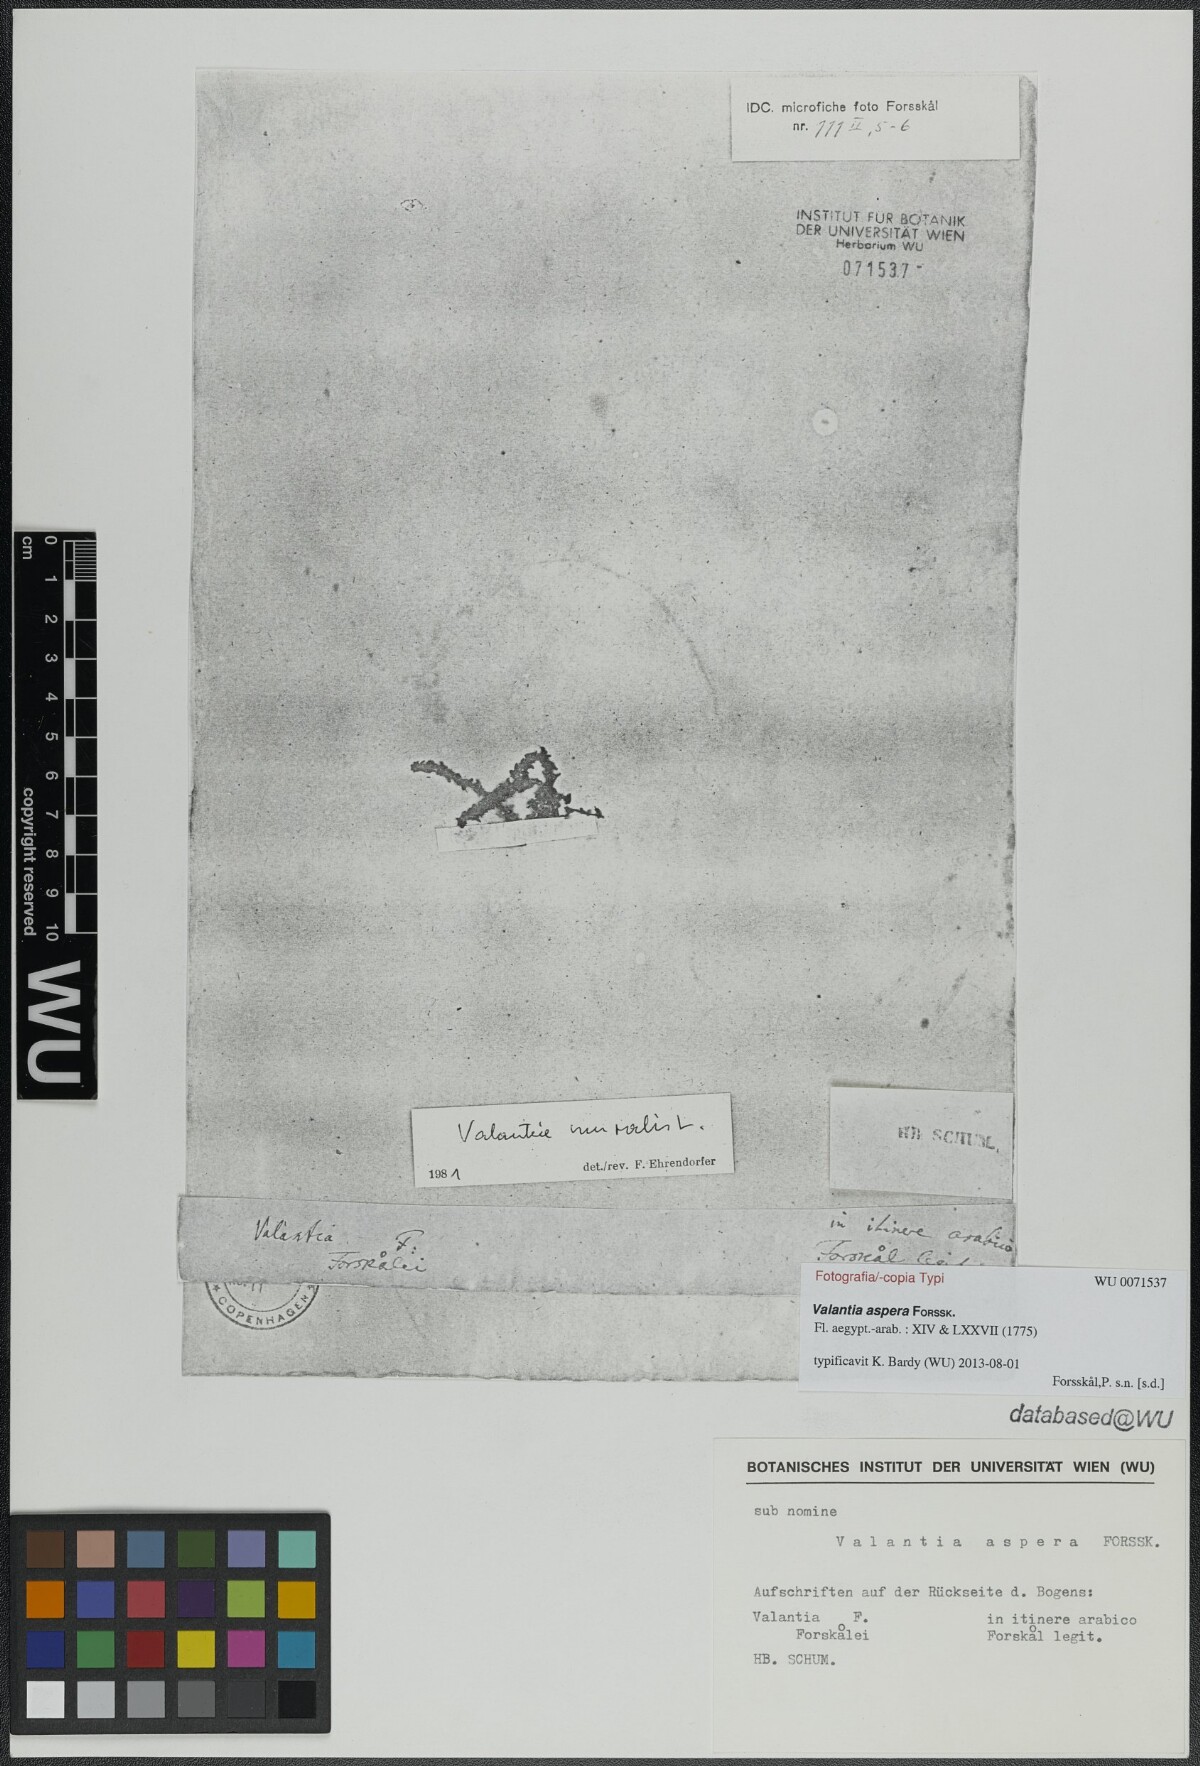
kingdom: Plantae
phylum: Tracheophyta
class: Magnoliopsida
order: Gentianales
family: Rubiaceae
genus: Cruciata
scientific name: Cruciata pedemontana
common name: Piedmont bedstraw
